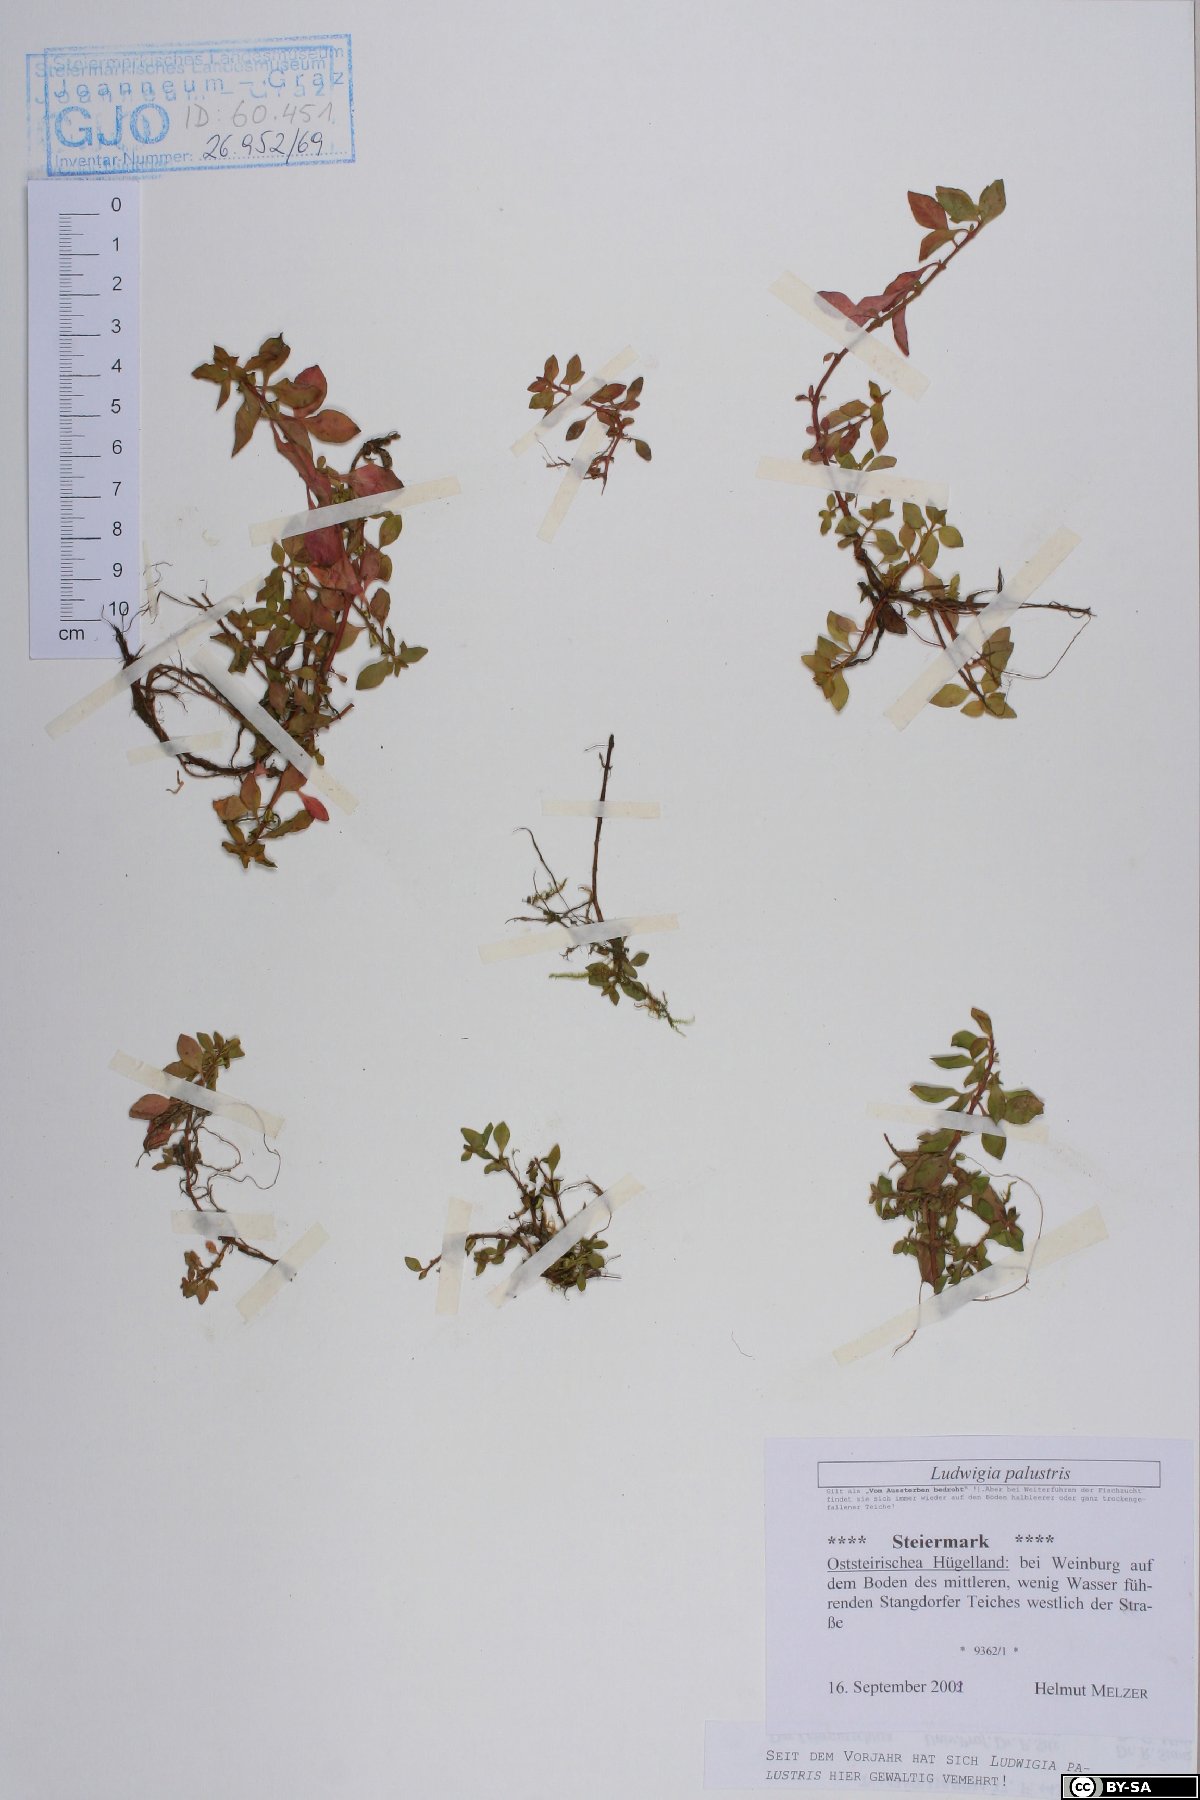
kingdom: Plantae
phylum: Tracheophyta
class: Magnoliopsida
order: Myrtales
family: Onagraceae
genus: Ludwigia
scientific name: Ludwigia palustris
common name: Hampshire-purslane
